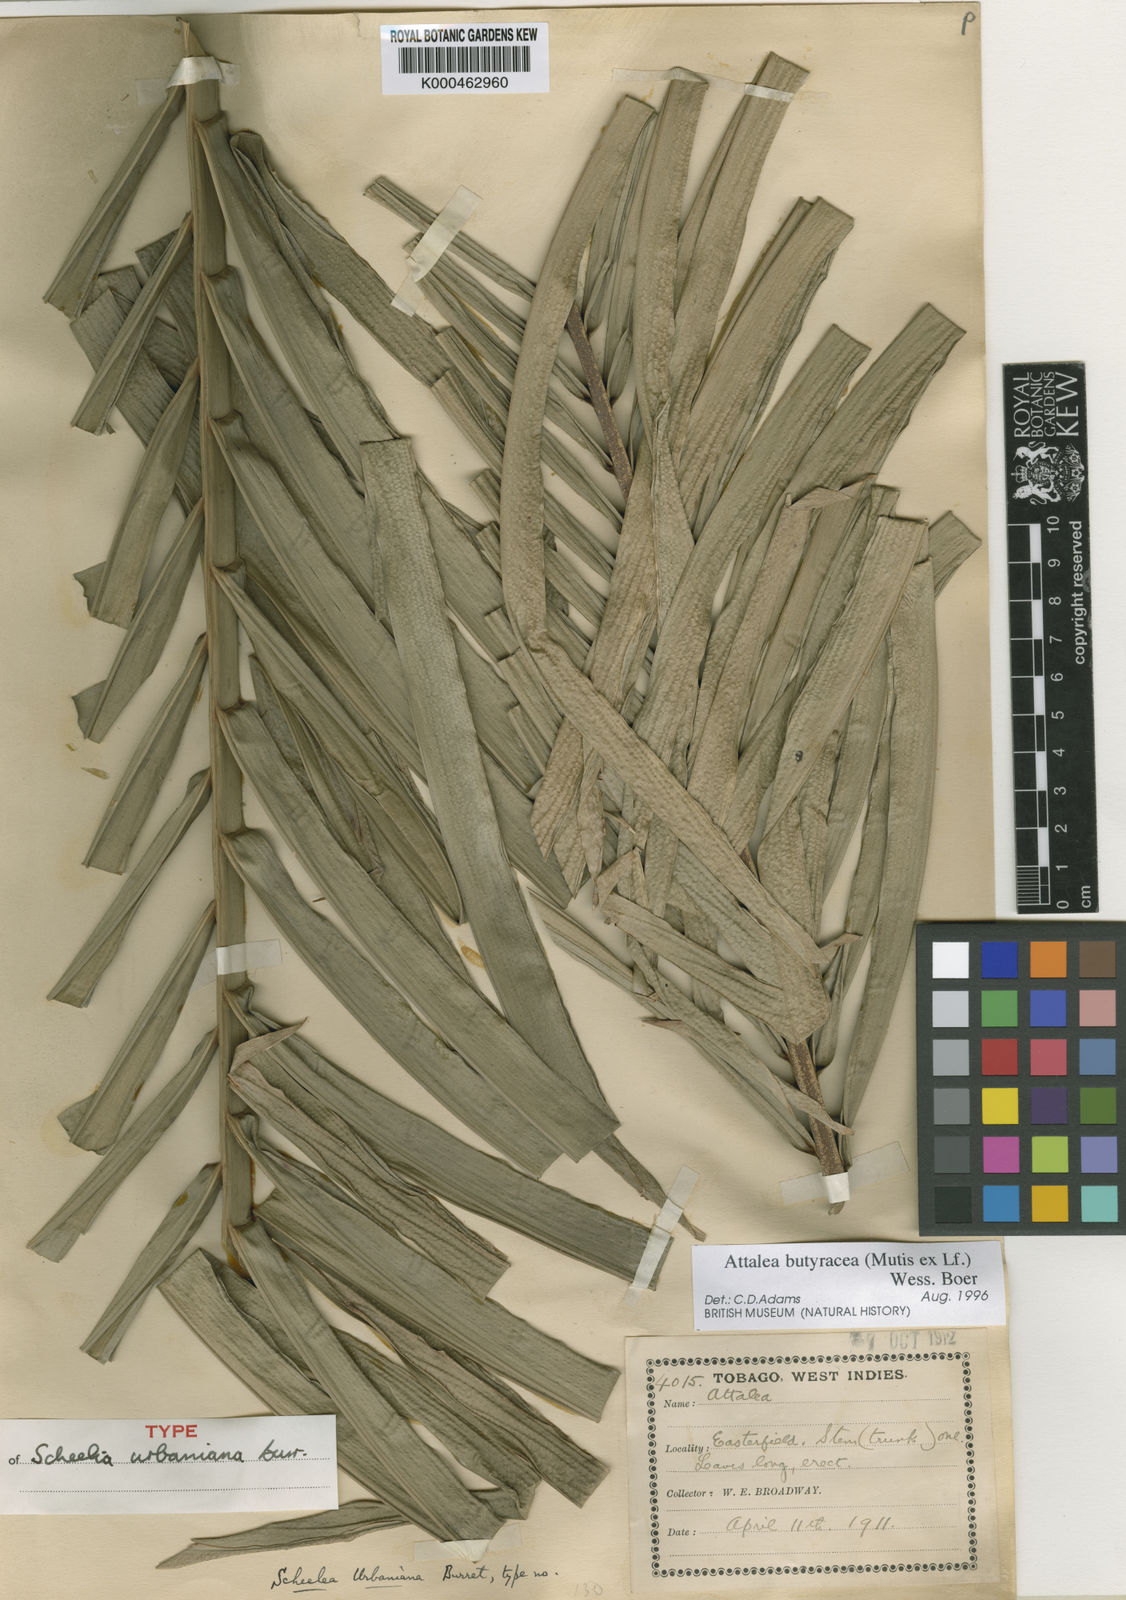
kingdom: Plantae
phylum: Tracheophyta
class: Liliopsida
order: Arecales
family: Arecaceae
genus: Attalea
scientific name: Attalea butyracea
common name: Kuakish
